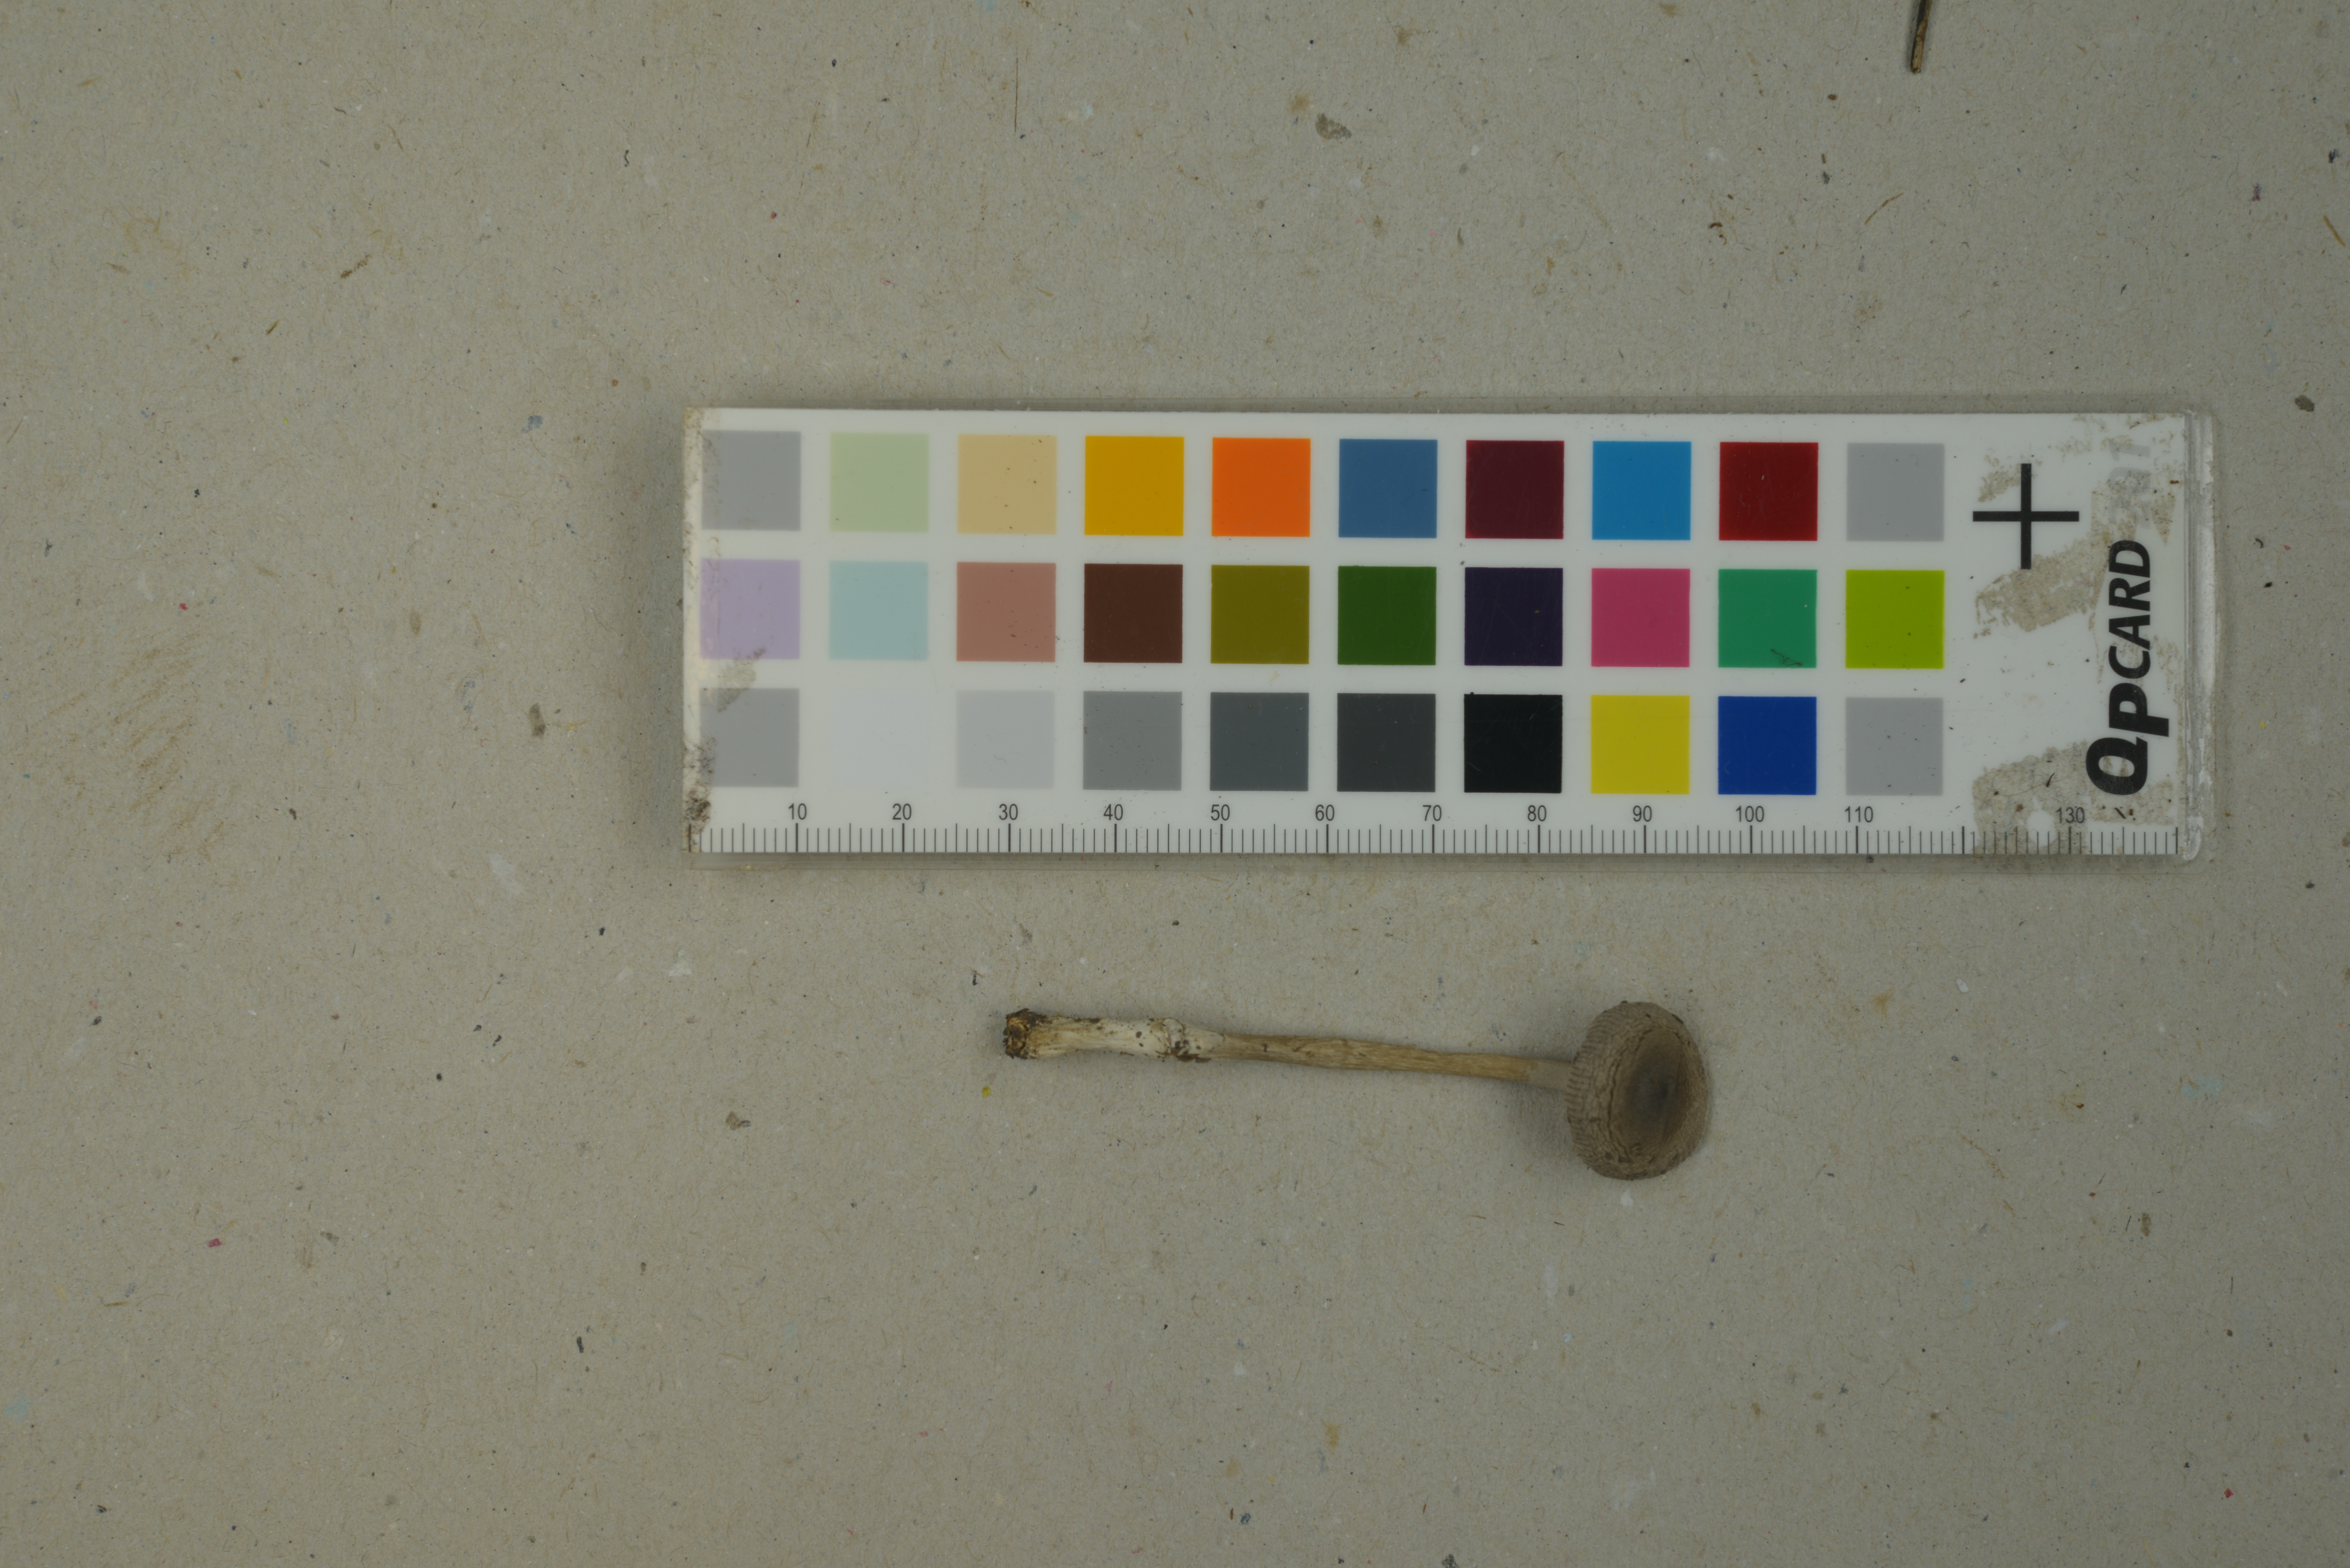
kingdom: Fungi
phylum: Basidiomycota
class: Agaricomycetes
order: Agaricales
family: Amanitaceae
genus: Amanita
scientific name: Amanita coryli
